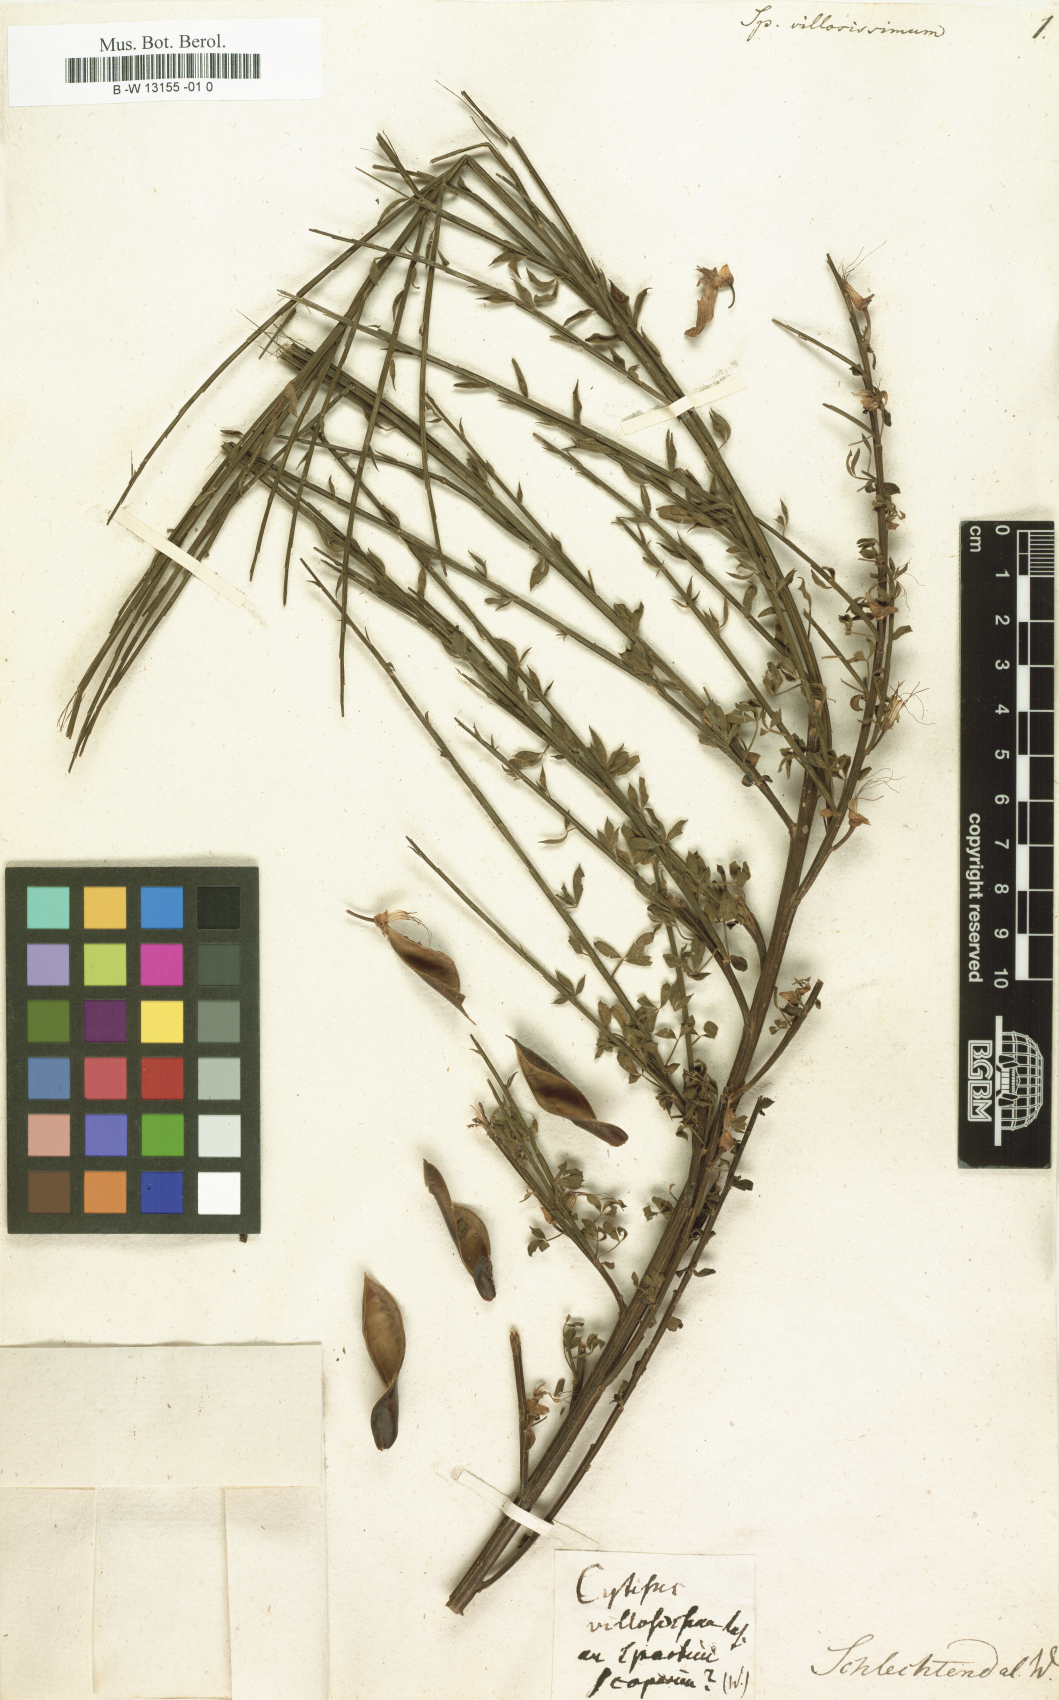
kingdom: Plantae
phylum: Tracheophyta
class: Magnoliopsida
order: Fabales
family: Fabaceae
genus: Spartium
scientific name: Spartium
